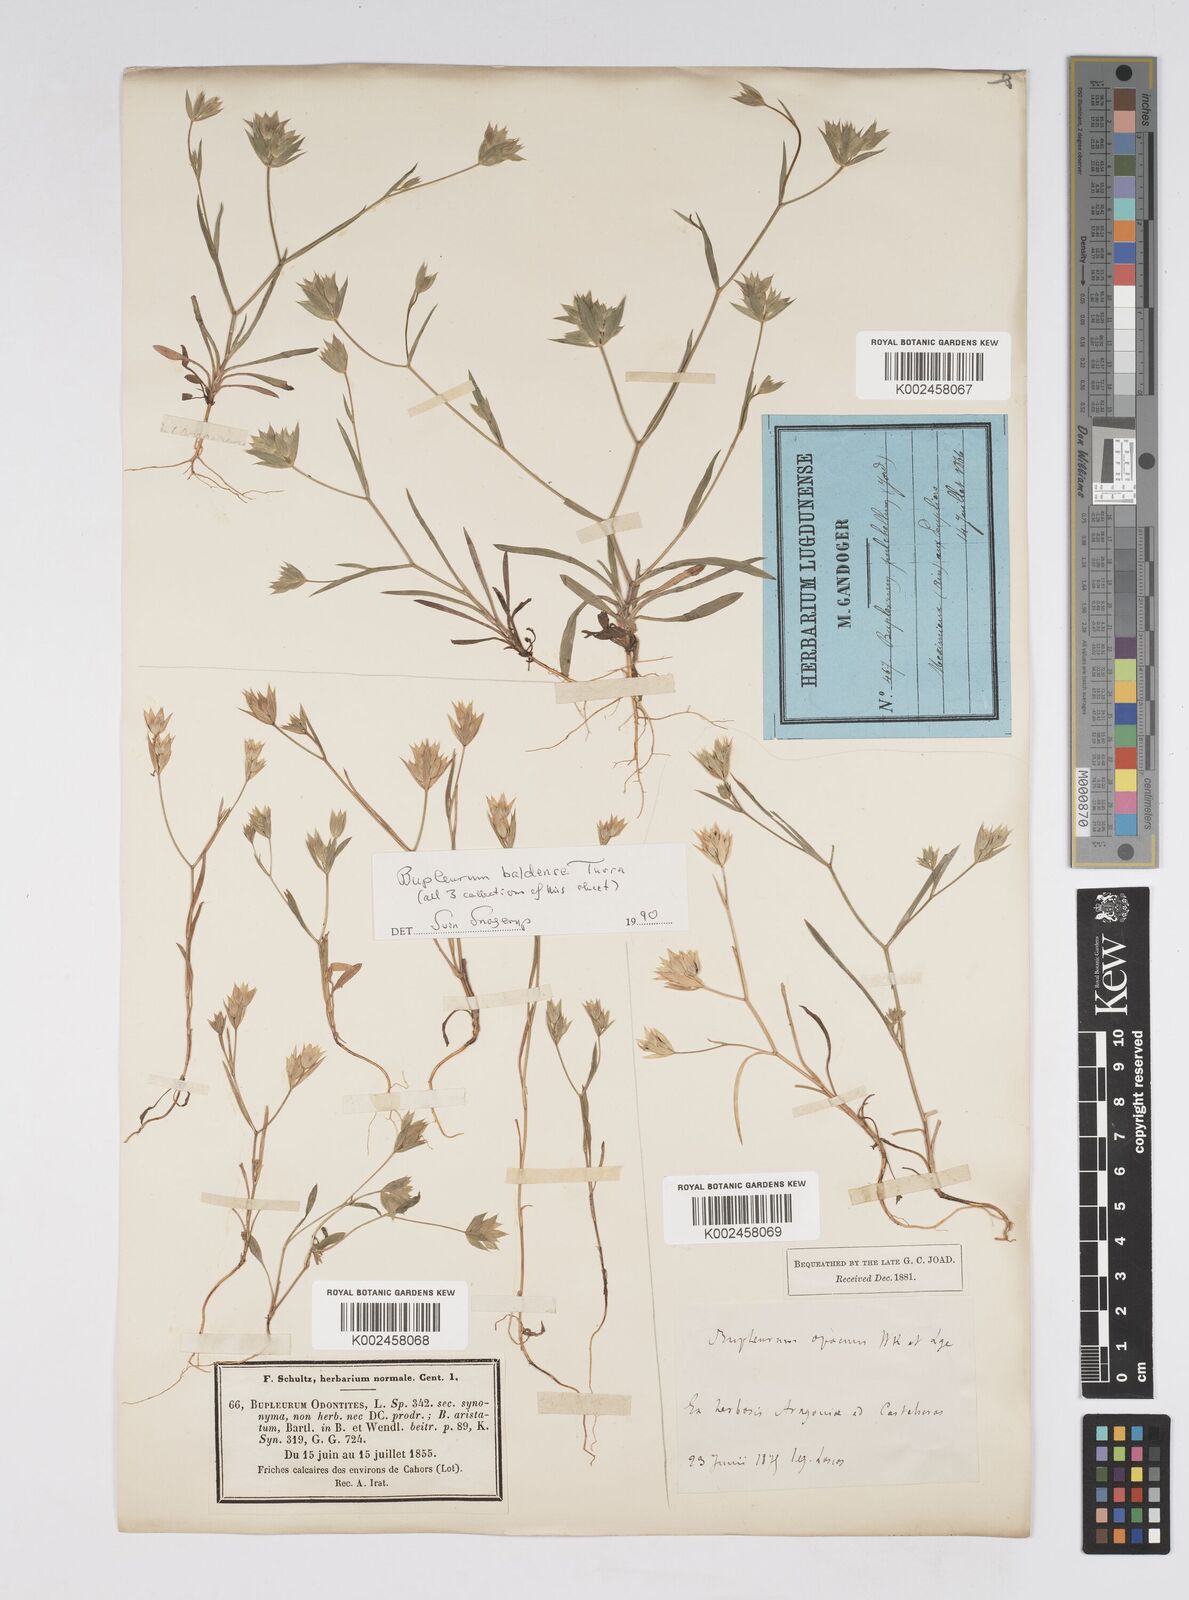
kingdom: Plantae
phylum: Tracheophyta
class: Magnoliopsida
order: Apiales
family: Apiaceae
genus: Bupleurum
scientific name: Bupleurum baldense
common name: Small hare's-ear
